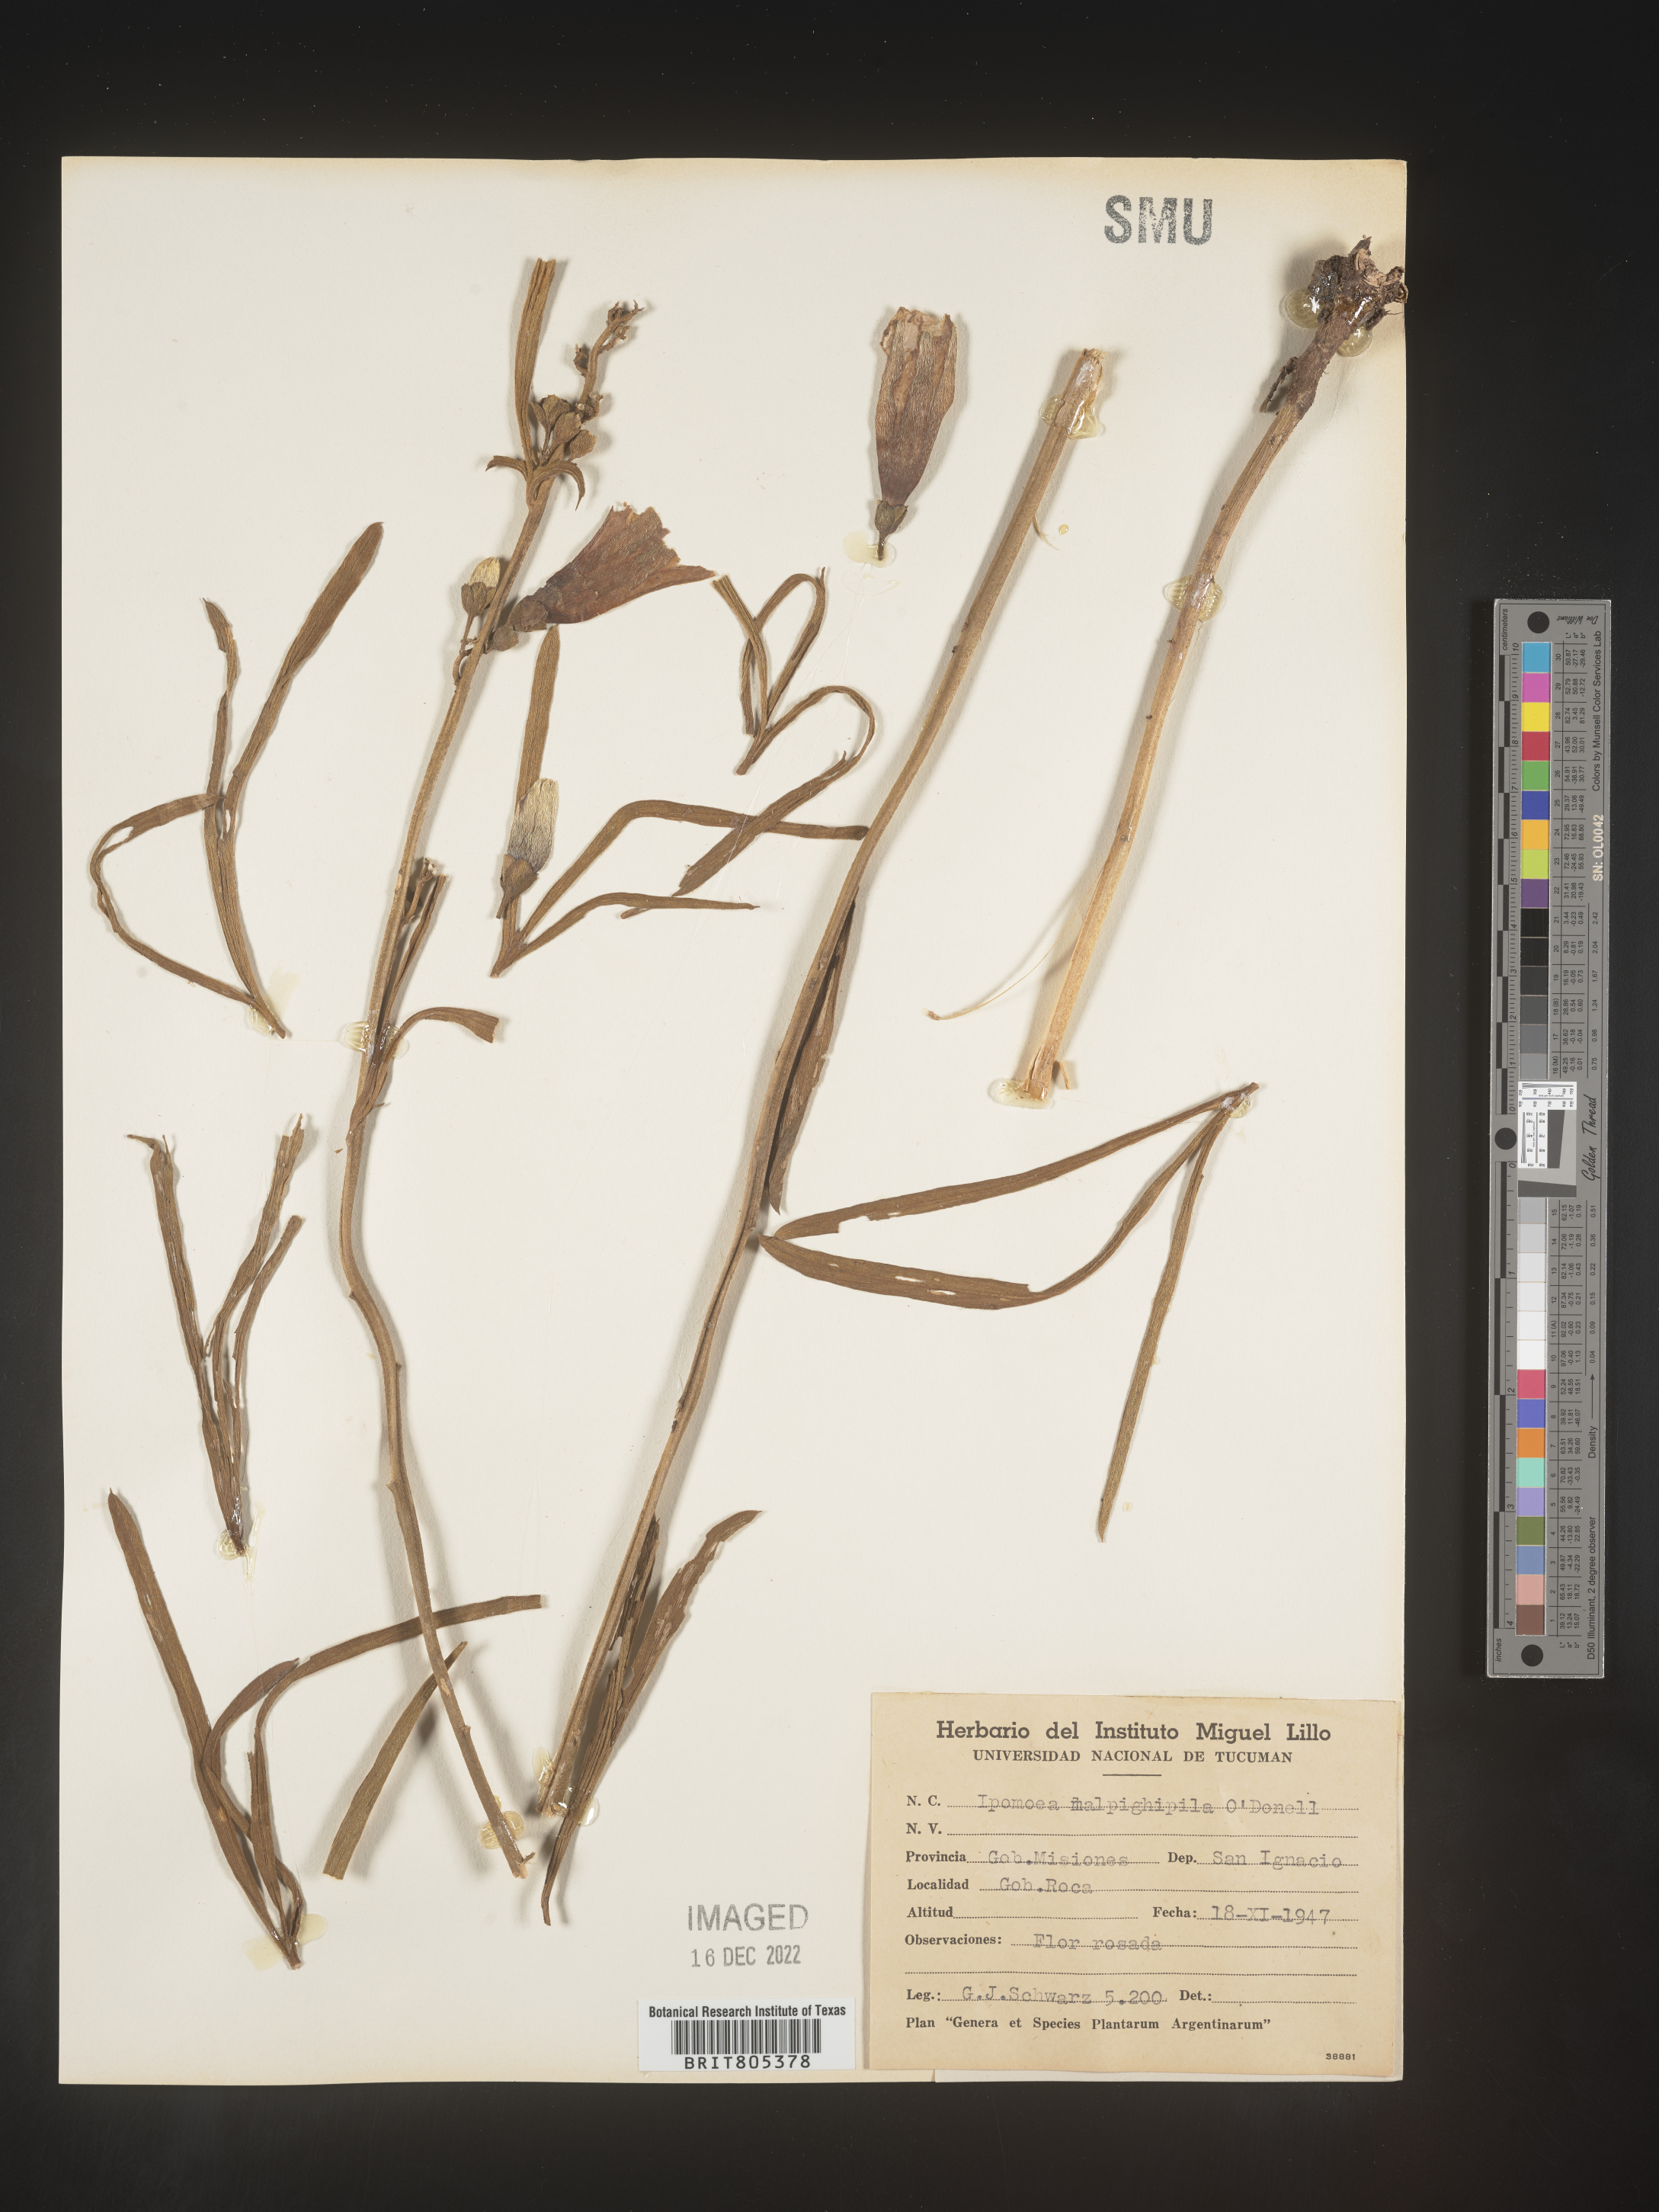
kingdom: Plantae
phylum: Tracheophyta
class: Magnoliopsida
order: Solanales
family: Convolvulaceae
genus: Ipomoea
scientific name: Ipomoea
